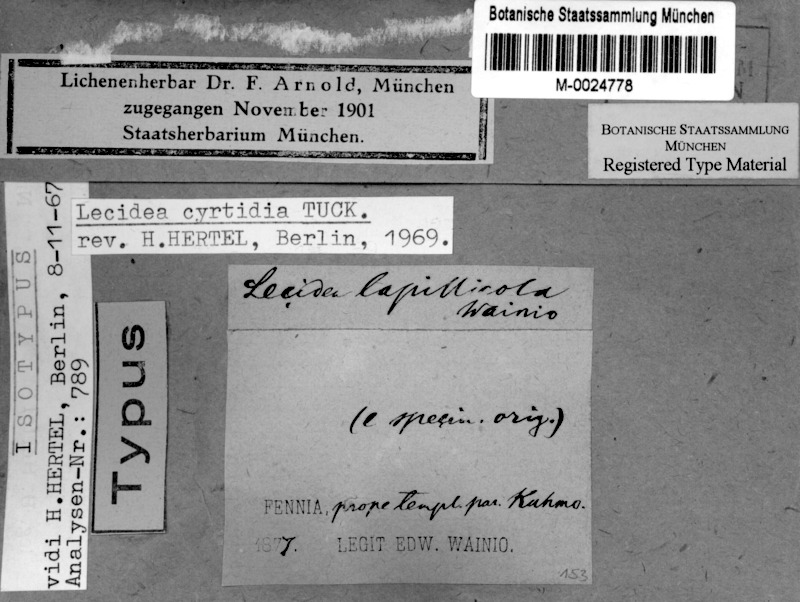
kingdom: Fungi
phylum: Ascomycota
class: Lecanoromycetes
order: Lecanorales
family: Byssolomataceae
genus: Micarea
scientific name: Micarea lapillicola
